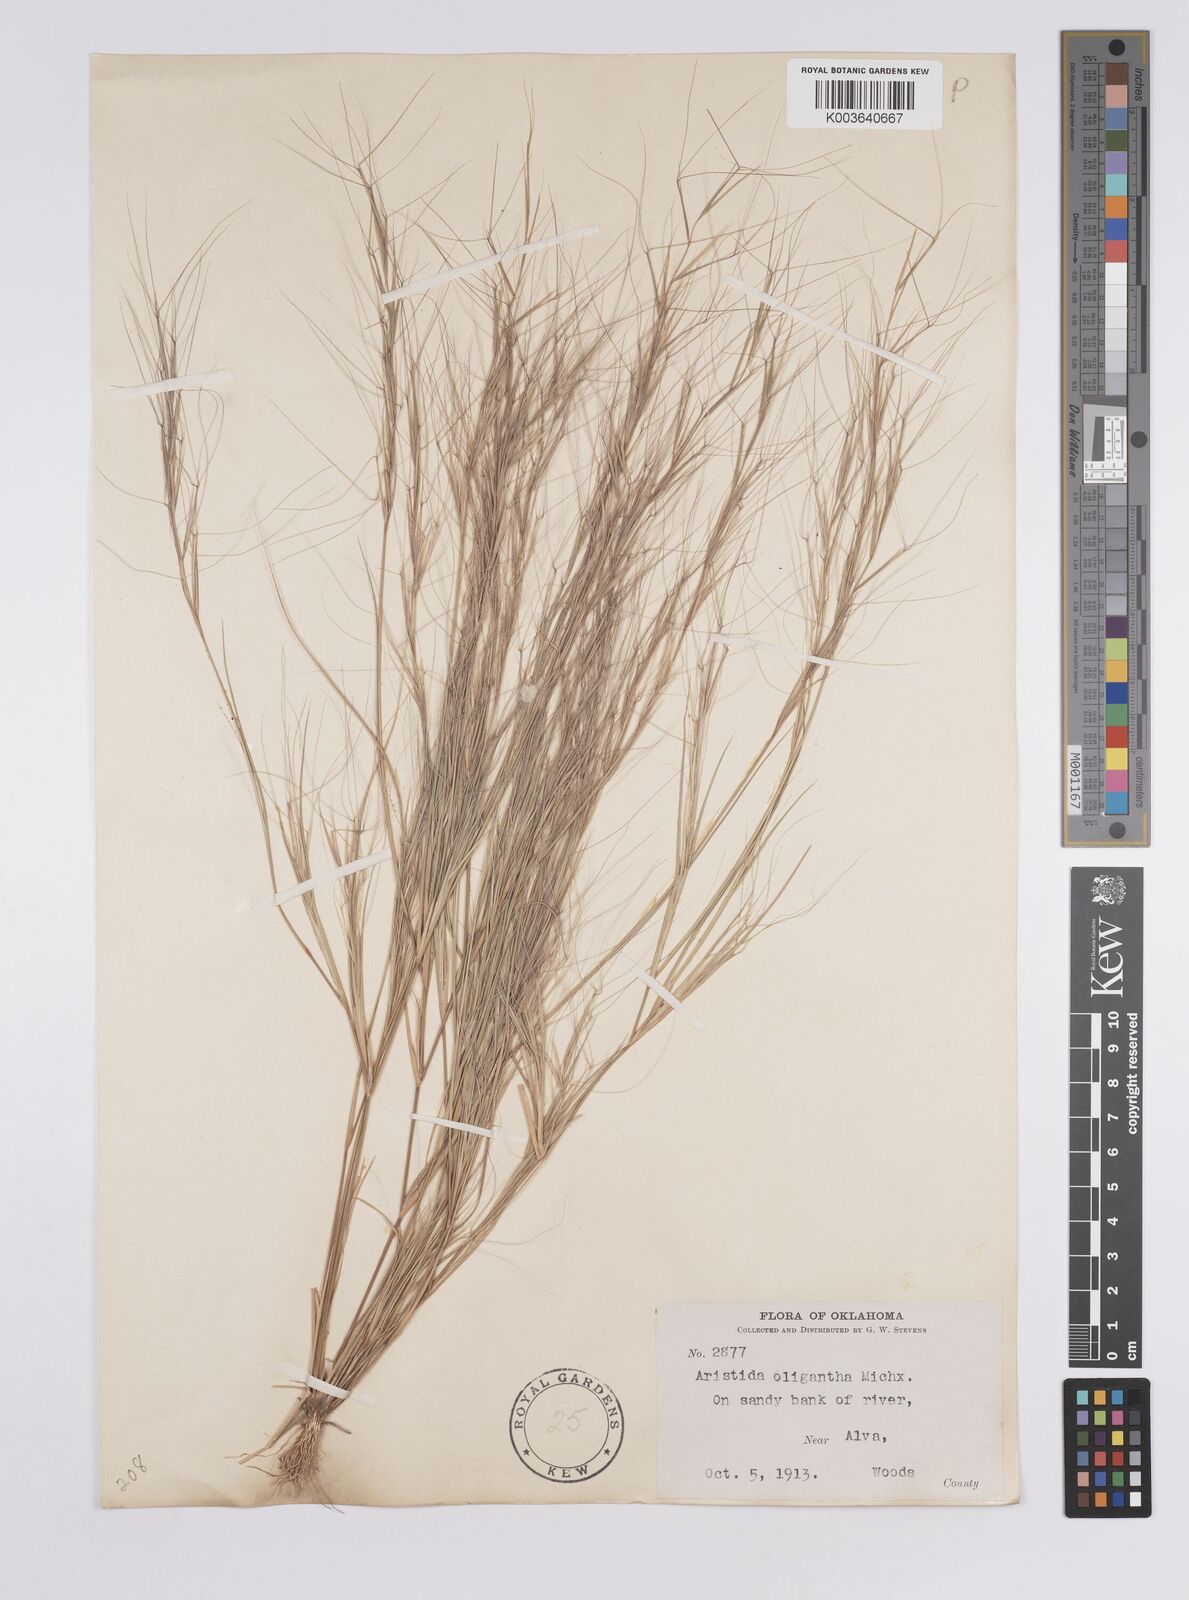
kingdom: Plantae
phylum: Tracheophyta
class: Liliopsida
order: Poales
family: Poaceae
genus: Aristida
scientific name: Aristida oligantha
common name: Few-flowered aristida
